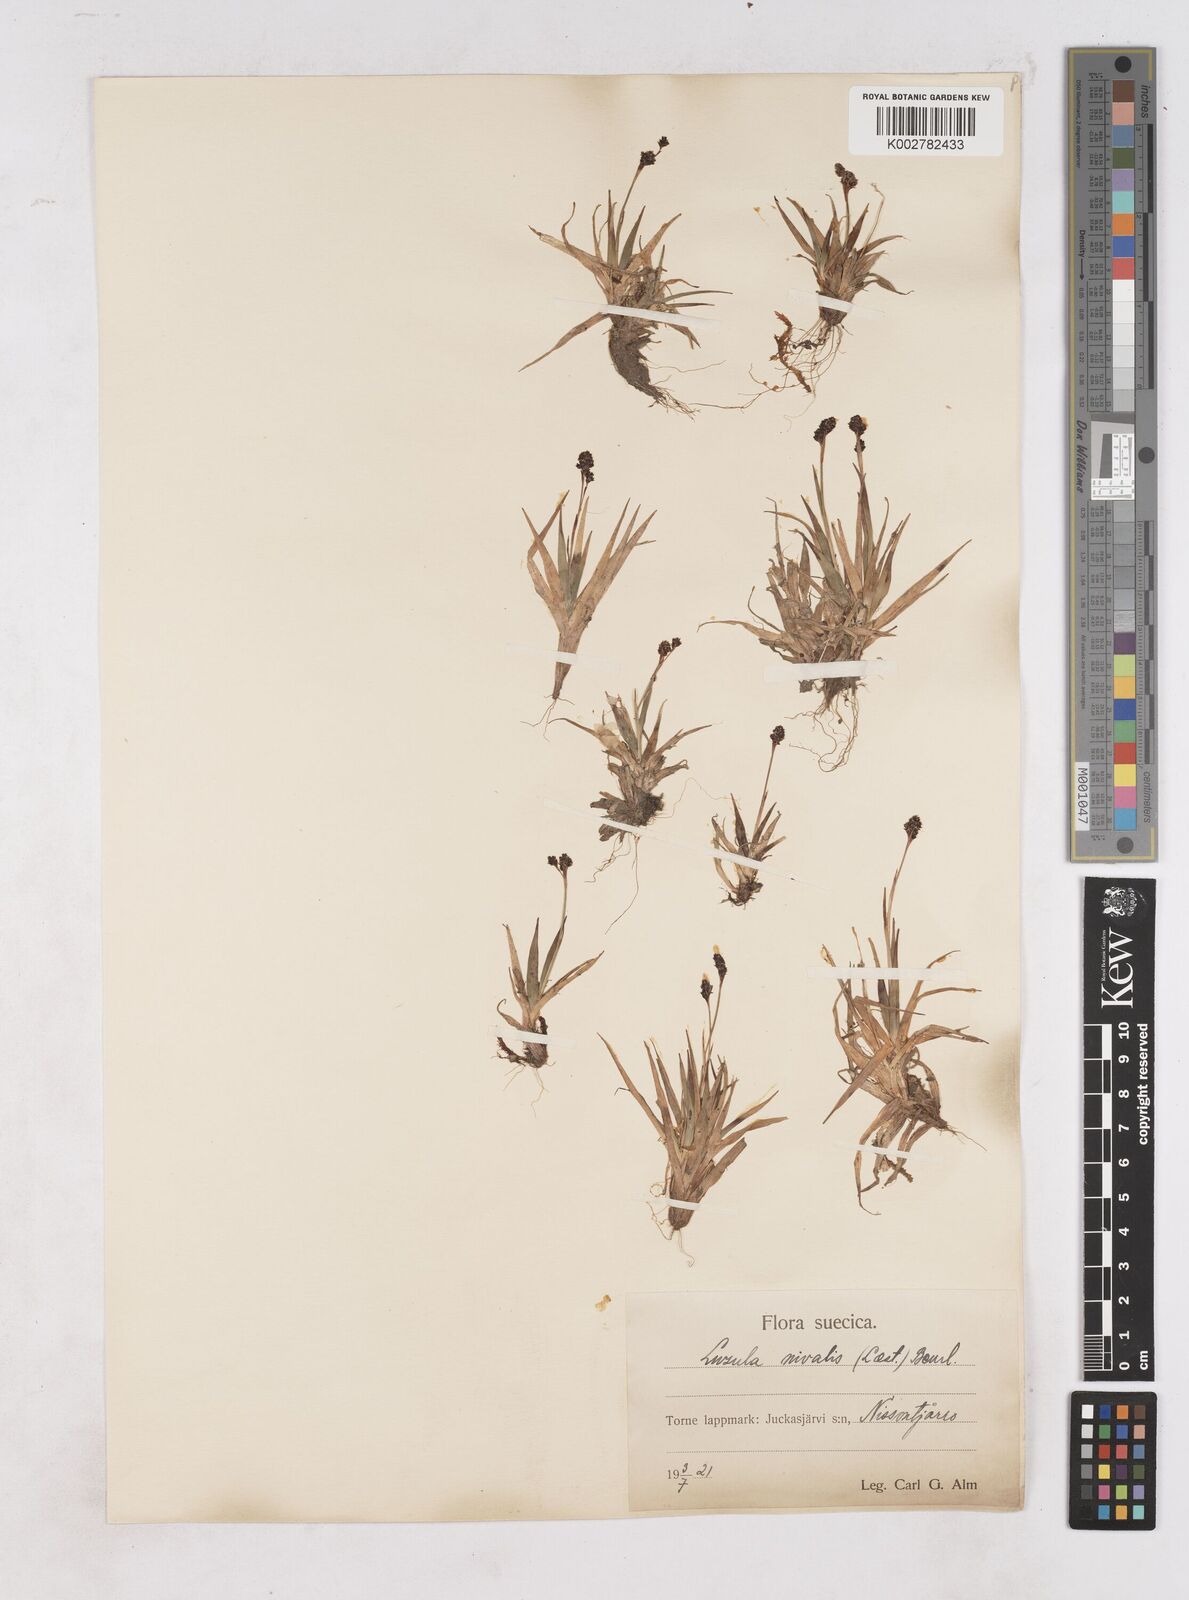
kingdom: Plantae
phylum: Tracheophyta
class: Liliopsida
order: Poales
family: Juncaceae
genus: Luzula
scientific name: Luzula nivalis
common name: Arctic woodrush
